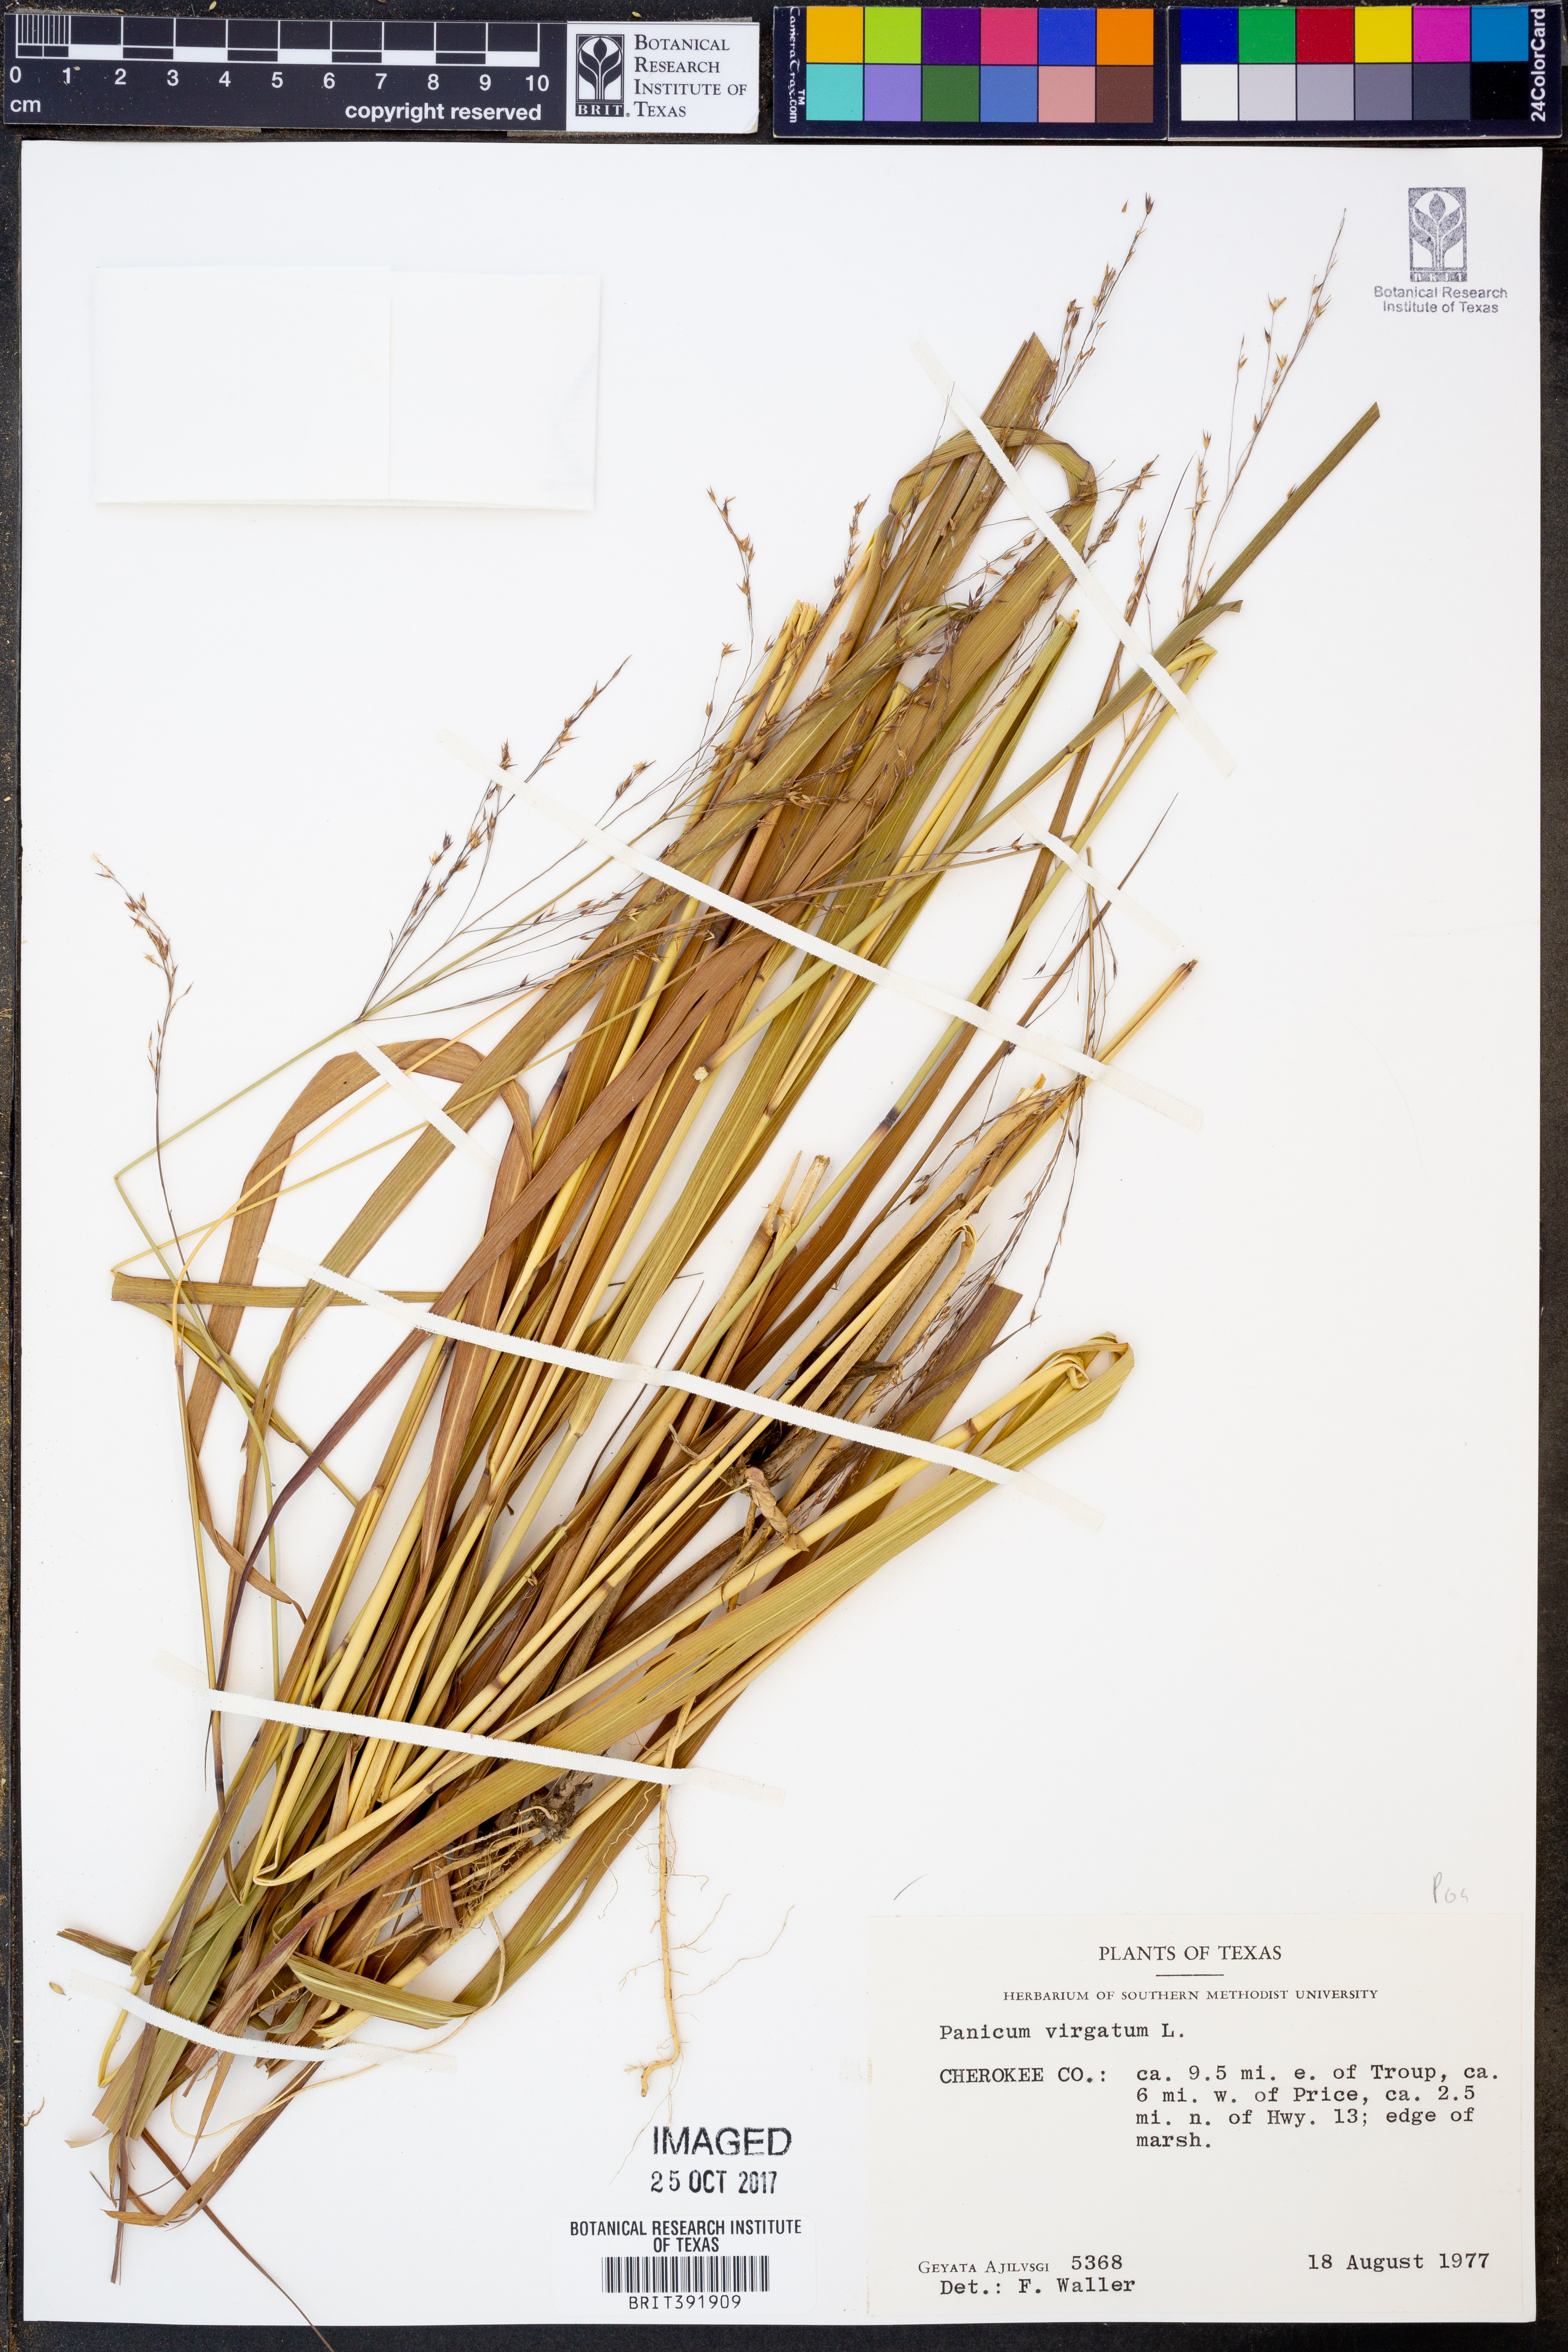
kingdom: Plantae
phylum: Tracheophyta
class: Liliopsida
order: Poales
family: Poaceae
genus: Panicum
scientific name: Panicum virgatum
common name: Switchgrass
